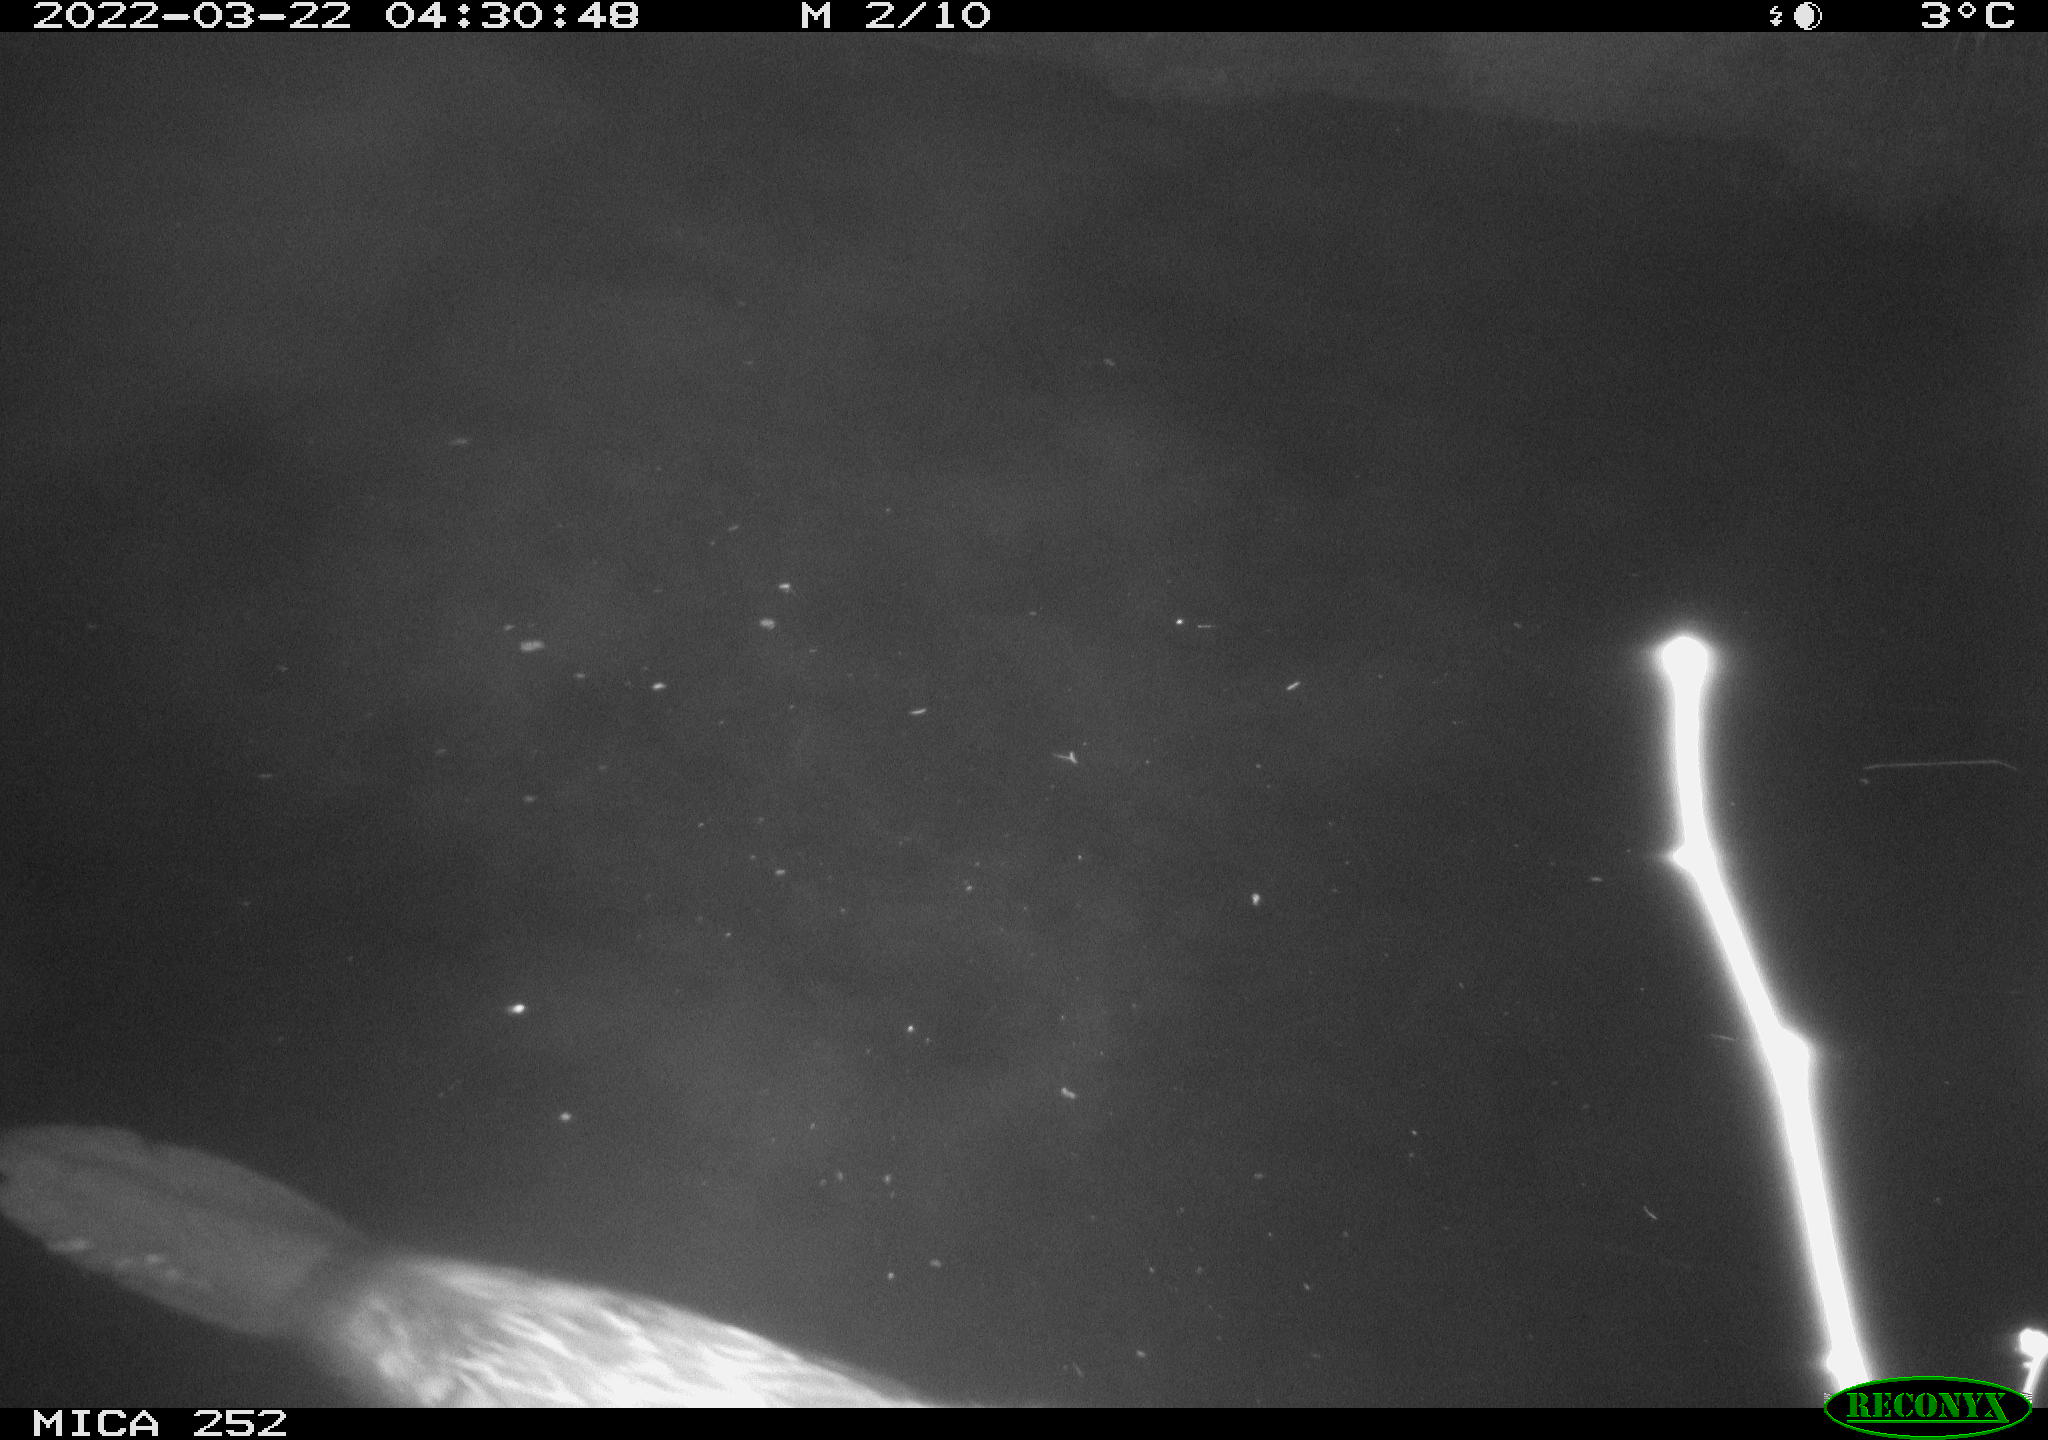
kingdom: Animalia
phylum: Chordata
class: Mammalia
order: Rodentia
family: Castoridae
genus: Castor
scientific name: Castor fiber
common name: Eurasian beaver
